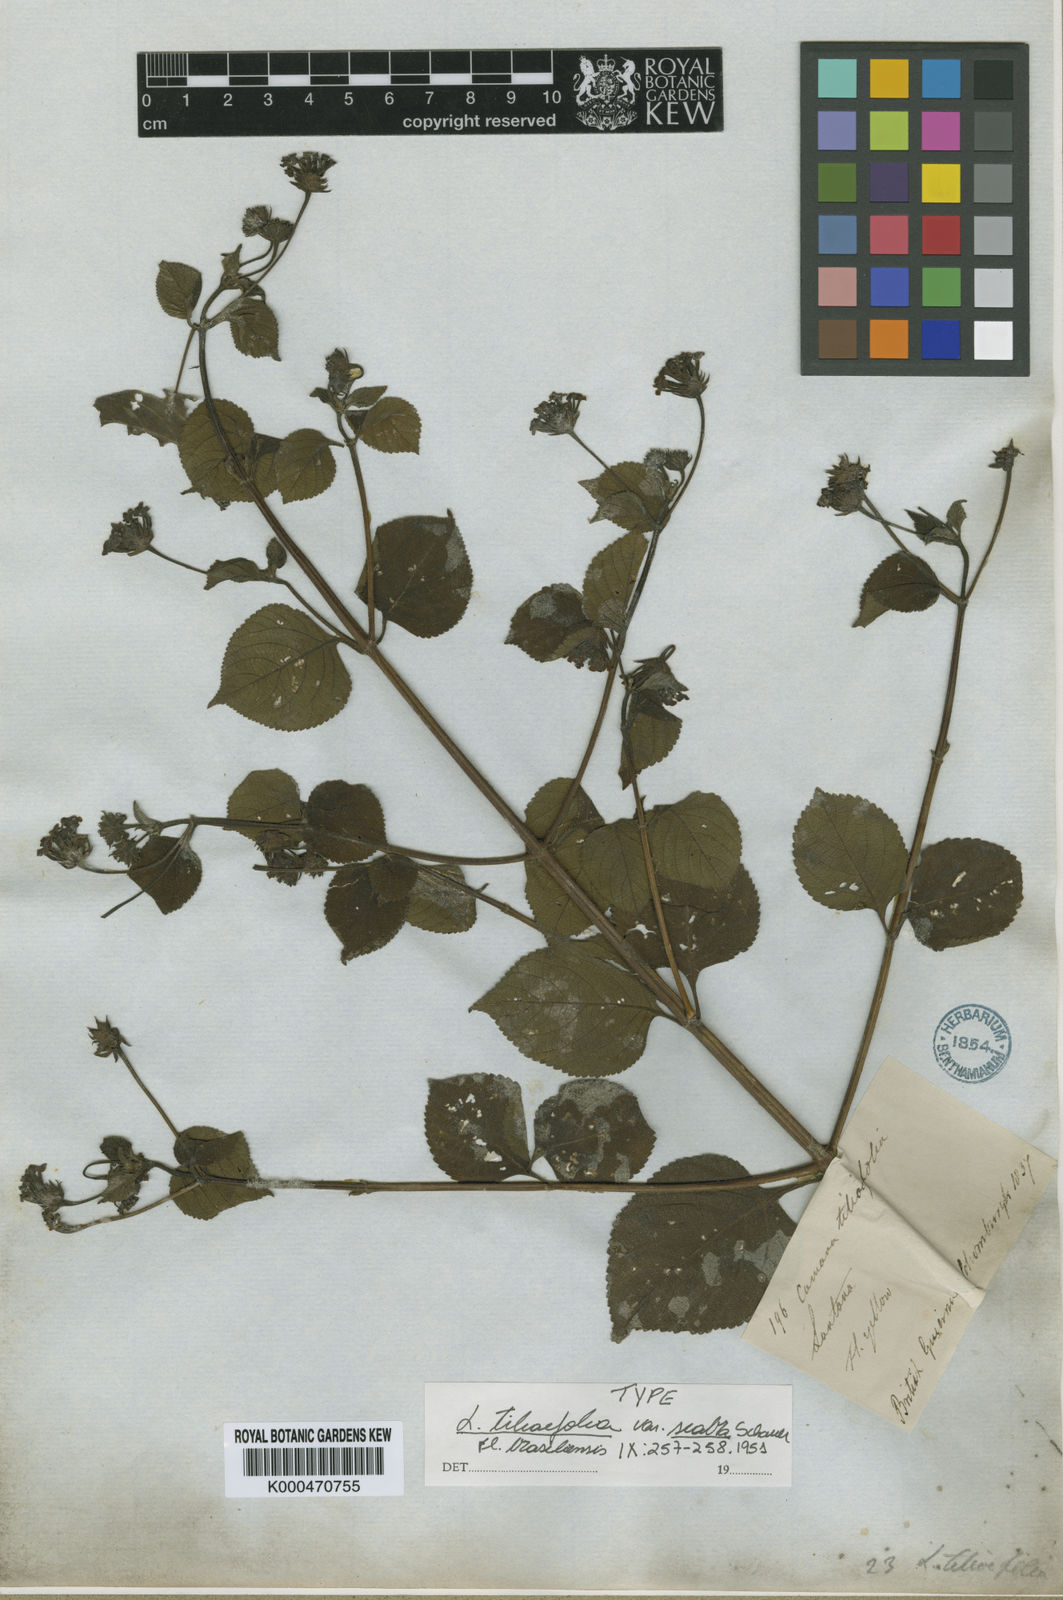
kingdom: Plantae
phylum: Tracheophyta
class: Magnoliopsida
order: Lamiales
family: Verbenaceae
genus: Lantana
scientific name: Lantana horrida
